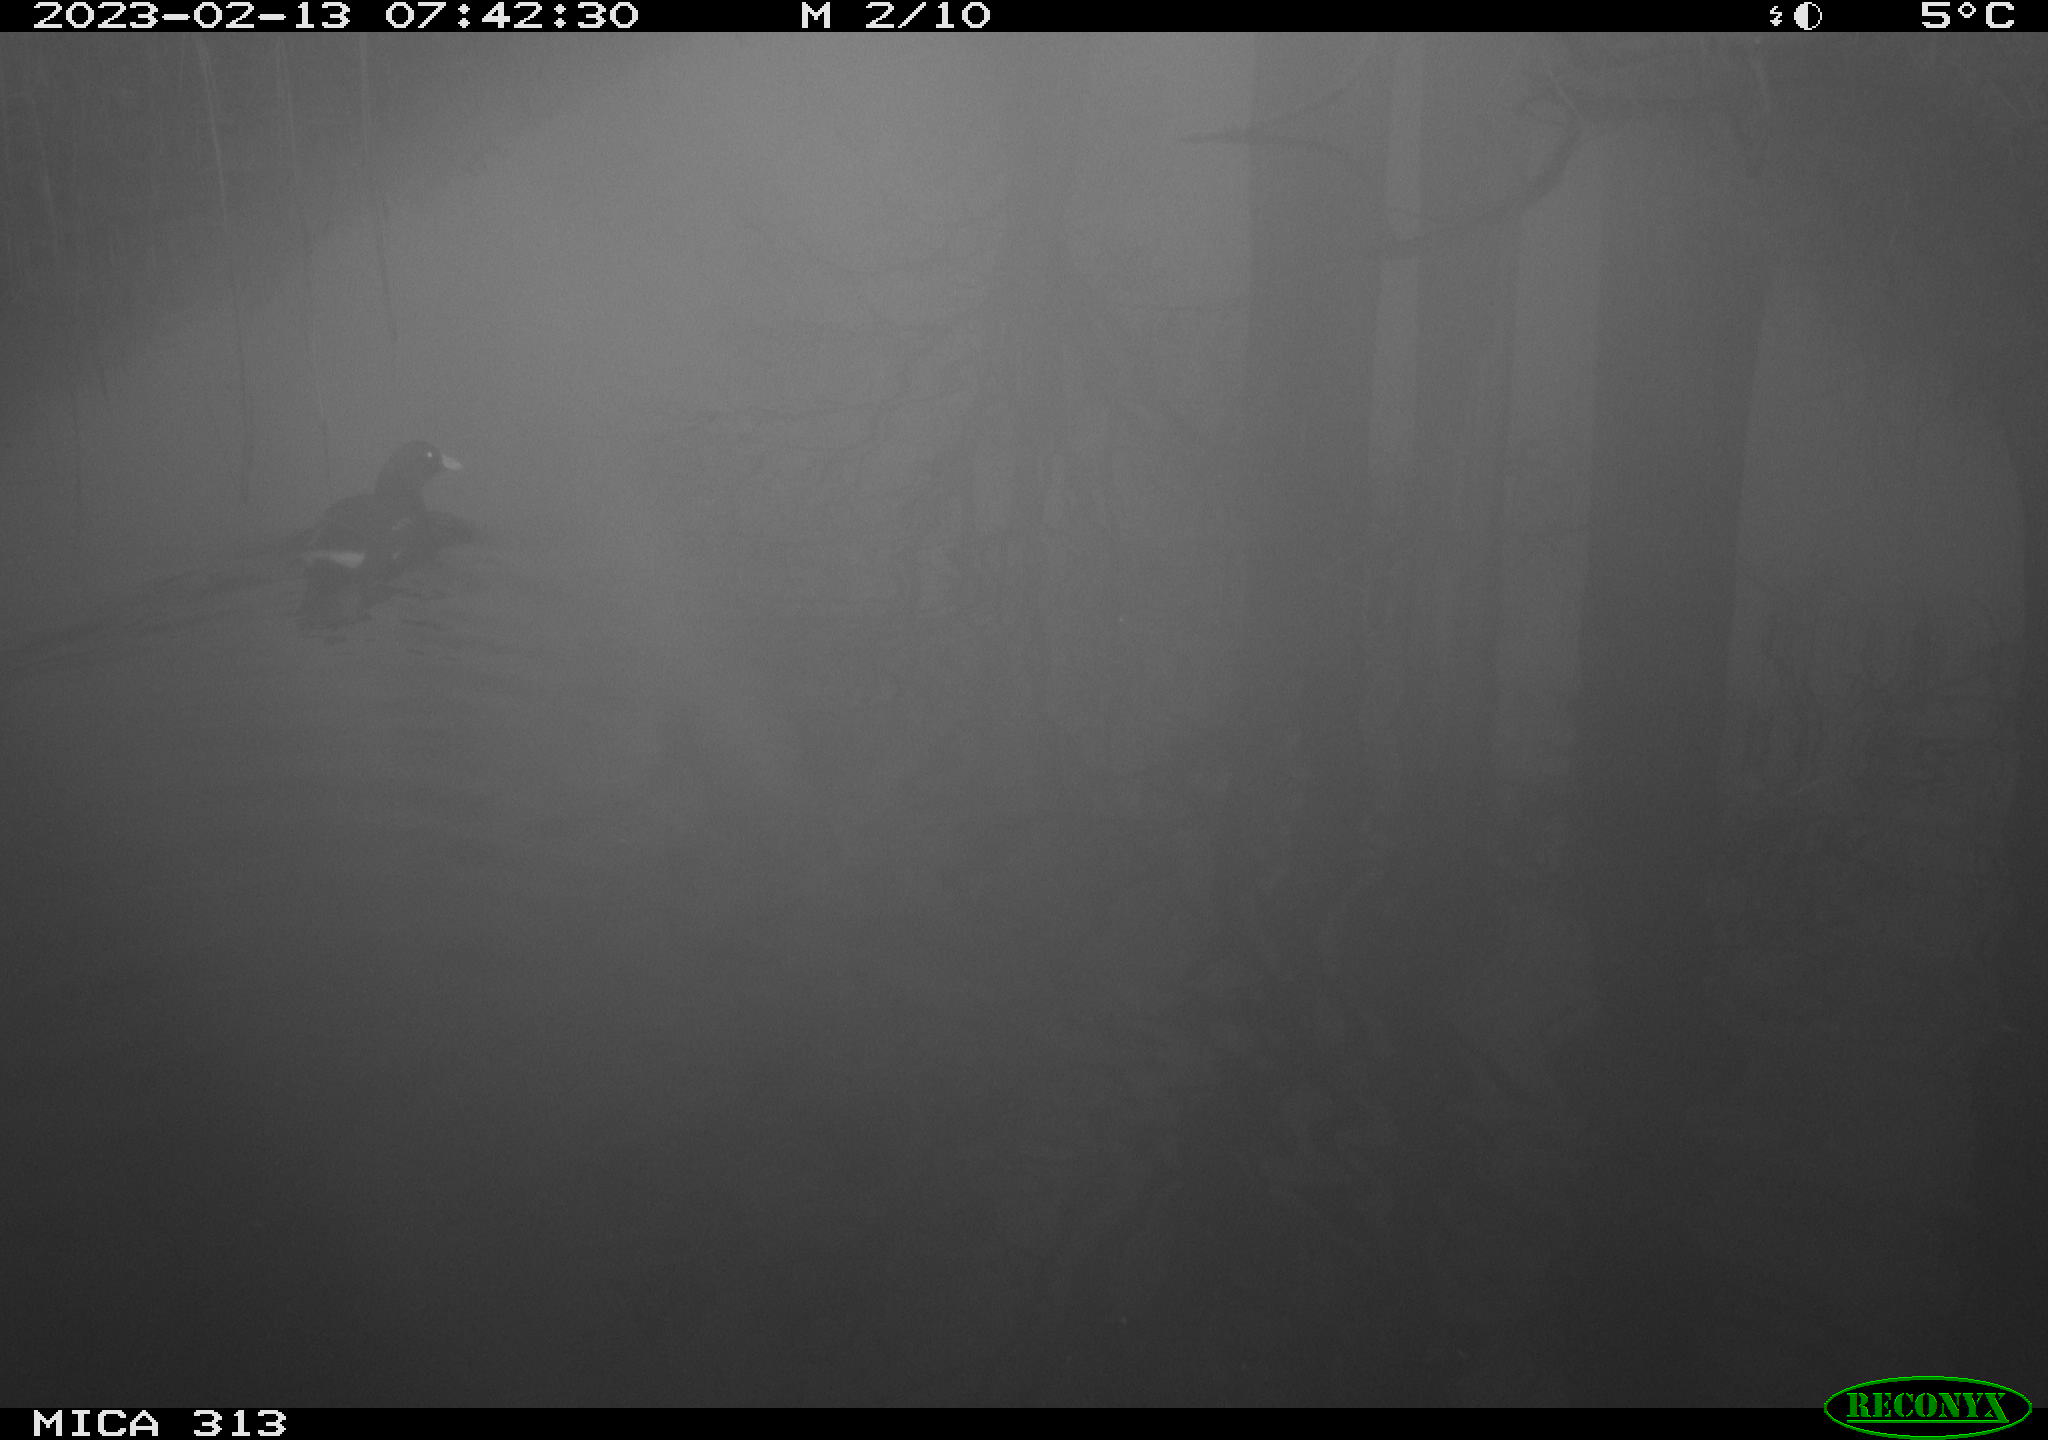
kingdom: Animalia
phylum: Chordata
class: Aves
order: Gruiformes
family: Rallidae
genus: Gallinula
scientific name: Gallinula chloropus
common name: Common moorhen
